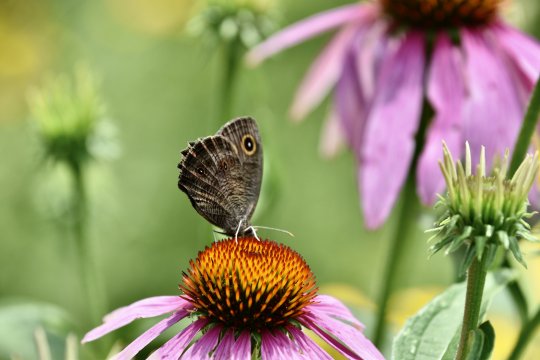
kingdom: Animalia
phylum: Arthropoda
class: Insecta
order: Lepidoptera
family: Nymphalidae
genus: Cercyonis
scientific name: Cercyonis pegala
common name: Common Wood-Nymph
